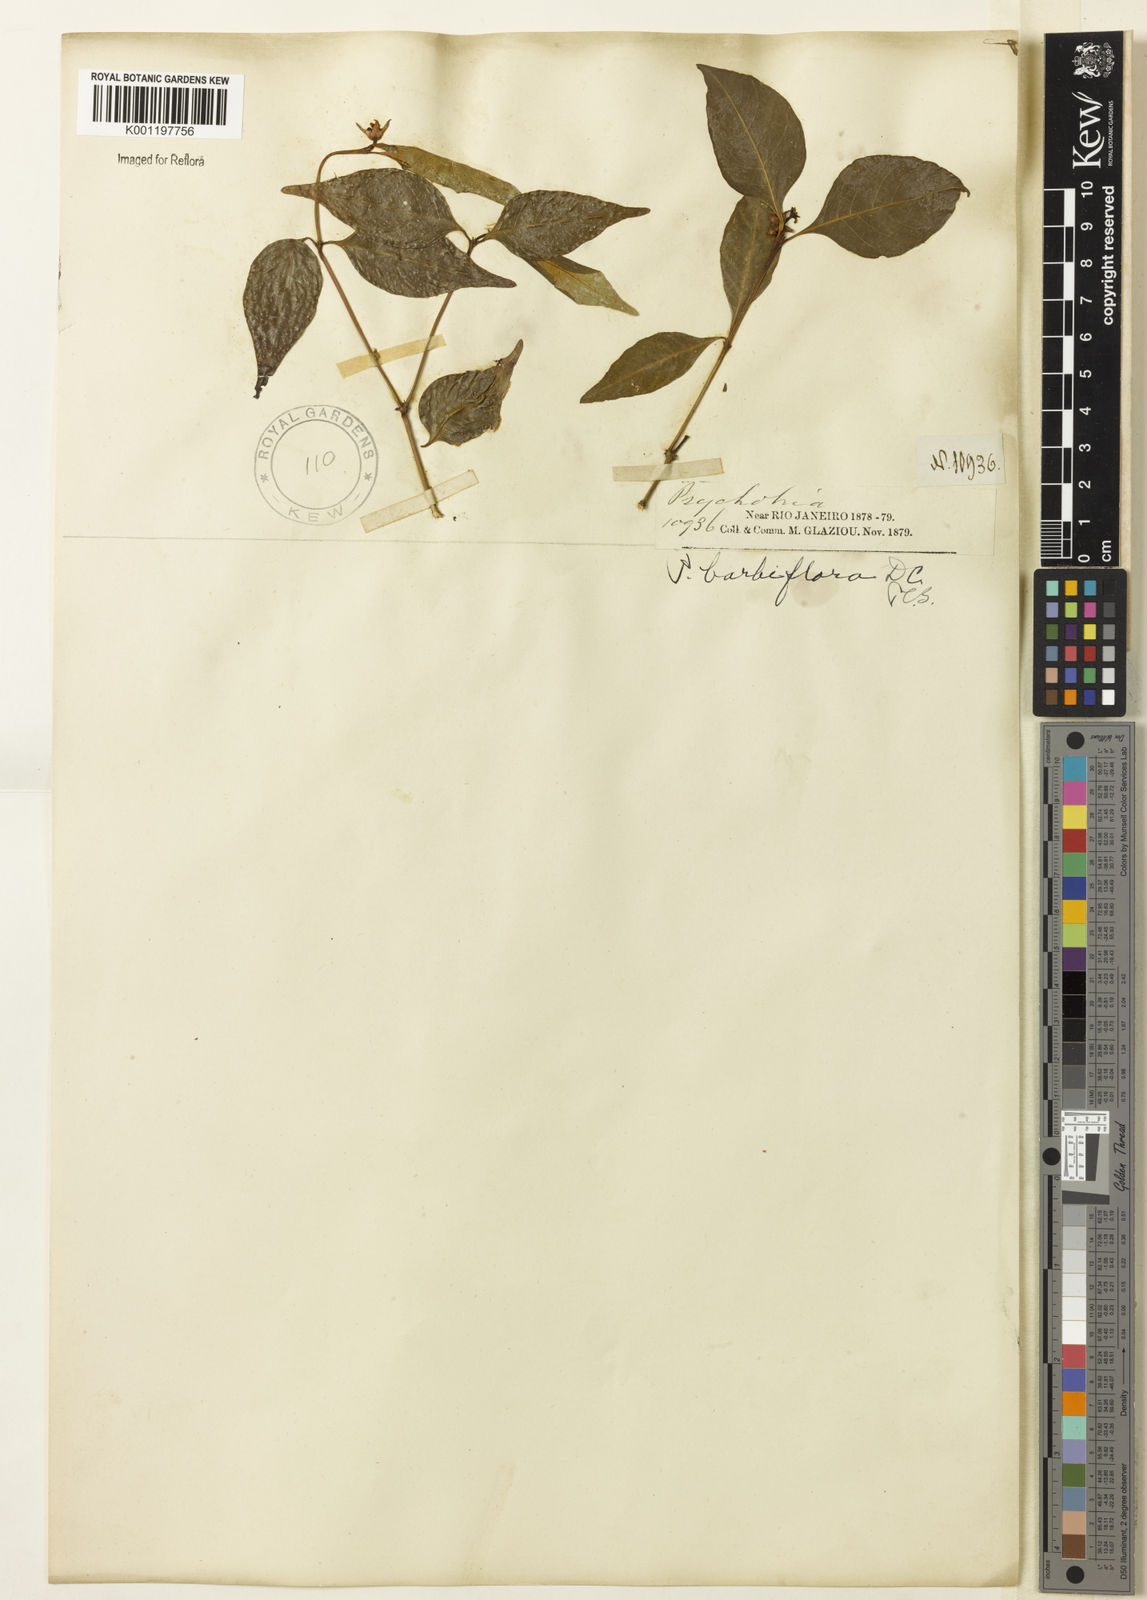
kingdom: Plantae
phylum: Tracheophyta
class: Magnoliopsida
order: Gentianales
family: Rubiaceae
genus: Palicourea
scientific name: Palicourea hoffmannseggiana
